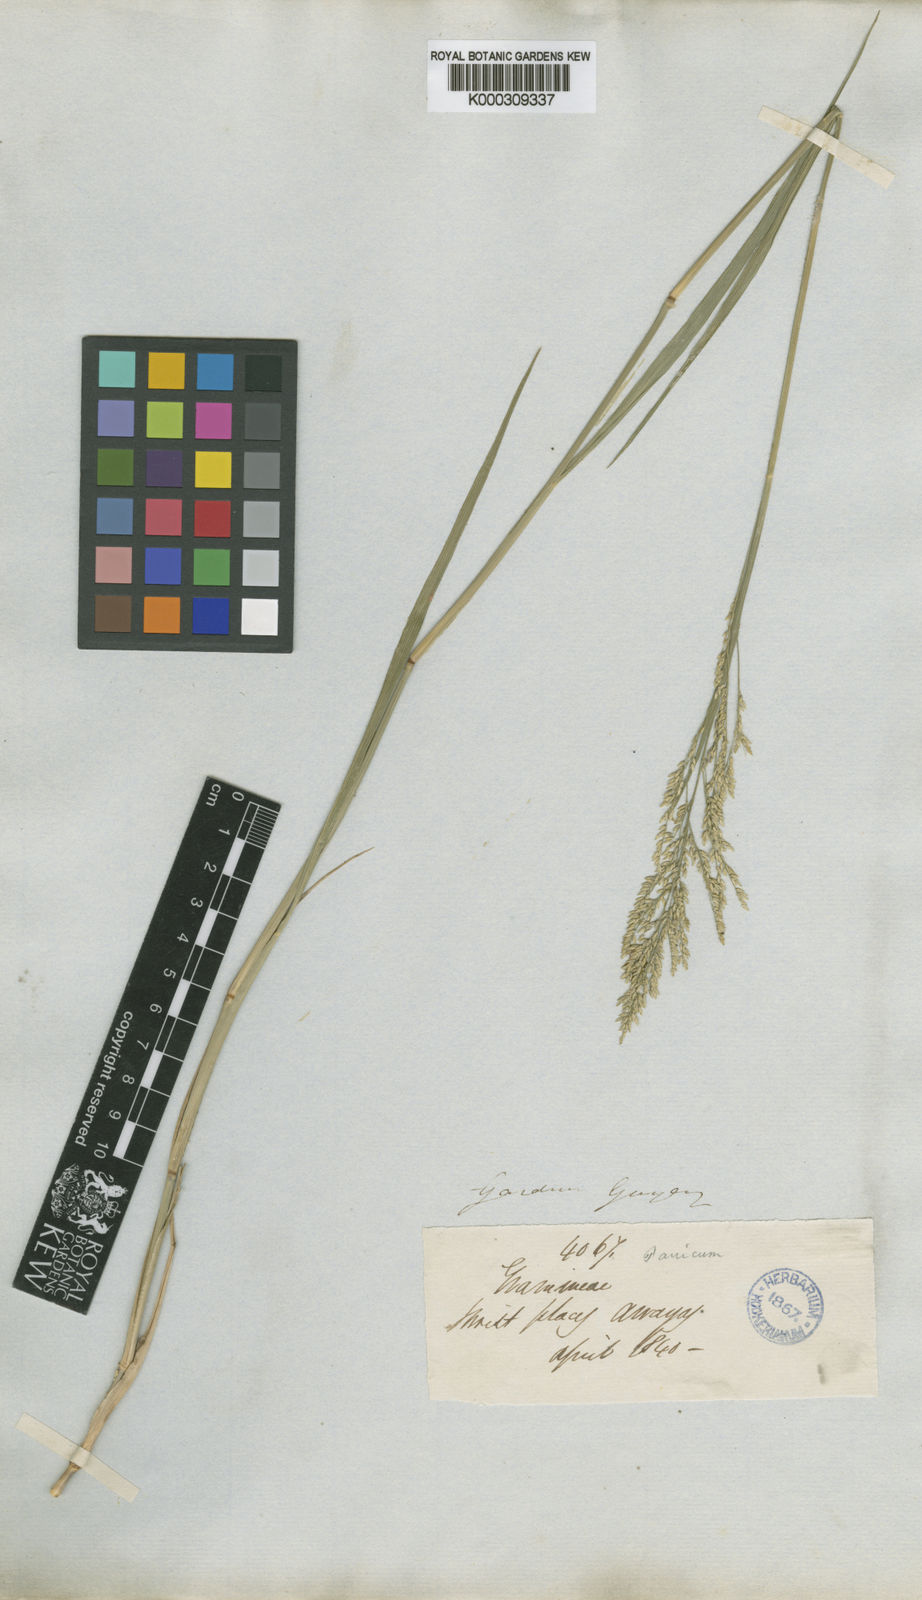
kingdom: Plantae
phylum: Tracheophyta
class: Liliopsida
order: Poales
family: Poaceae
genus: Steinchisma
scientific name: Steinchisma stenophyllum
